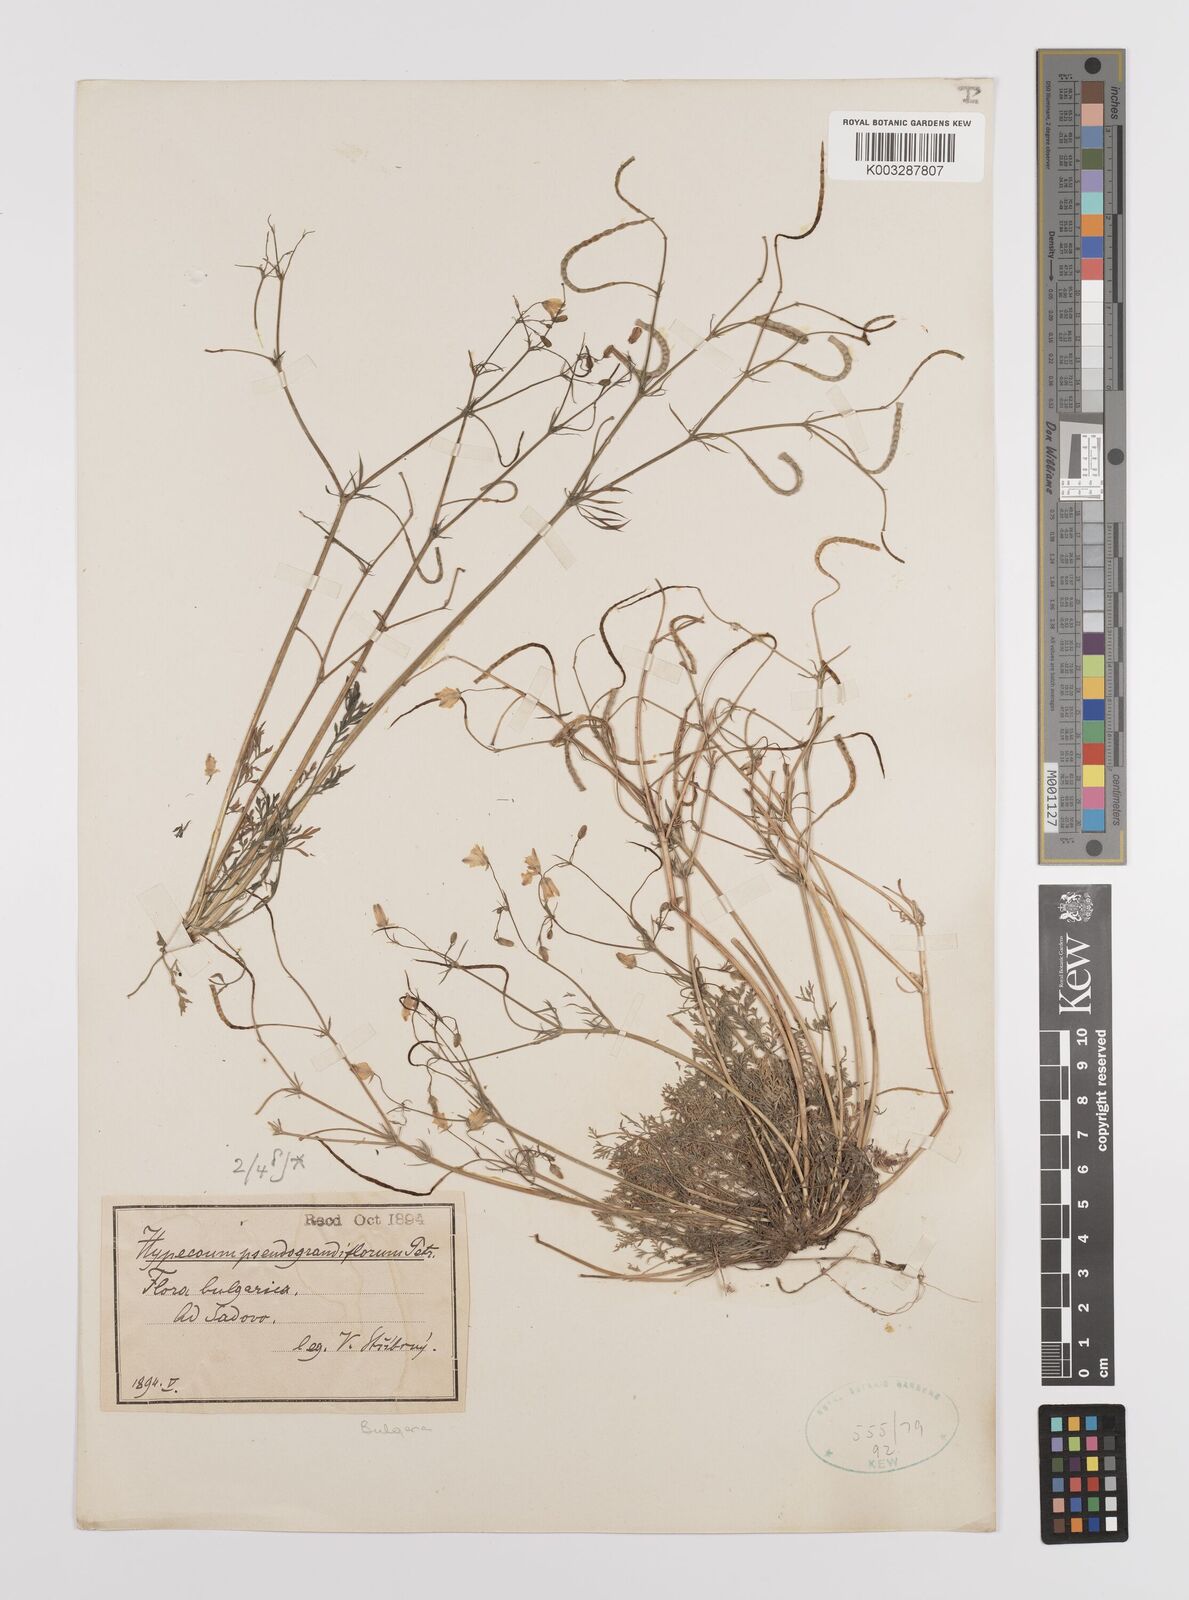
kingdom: Plantae
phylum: Tracheophyta
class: Magnoliopsida
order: Ranunculales
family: Papaveraceae
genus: Hypecoum
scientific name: Hypecoum imberbe
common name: Sicklefruit hypecoum
